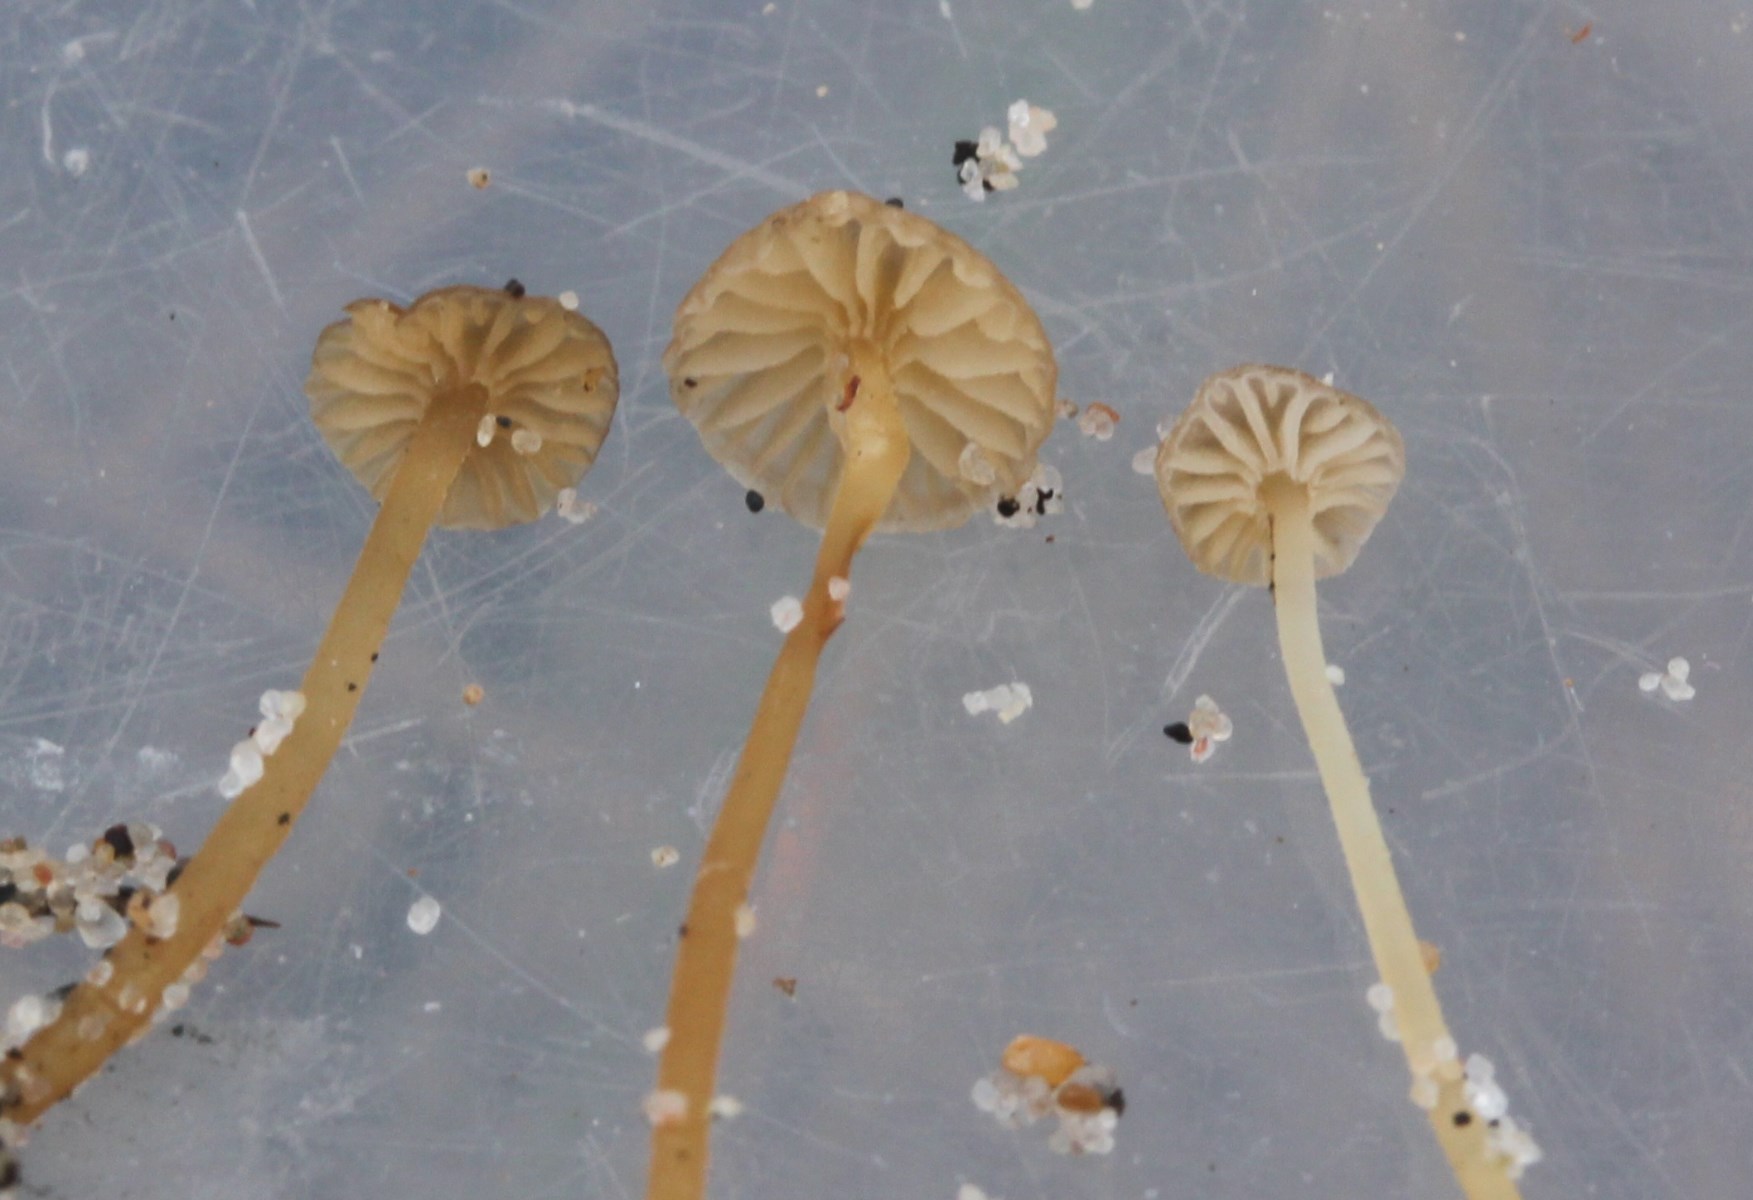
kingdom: Fungi
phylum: Basidiomycota
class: Agaricomycetes
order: Agaricales
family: Mycenaceae
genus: Mycena
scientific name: Mycena olivaceomarginata
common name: brunægget huesvamp
